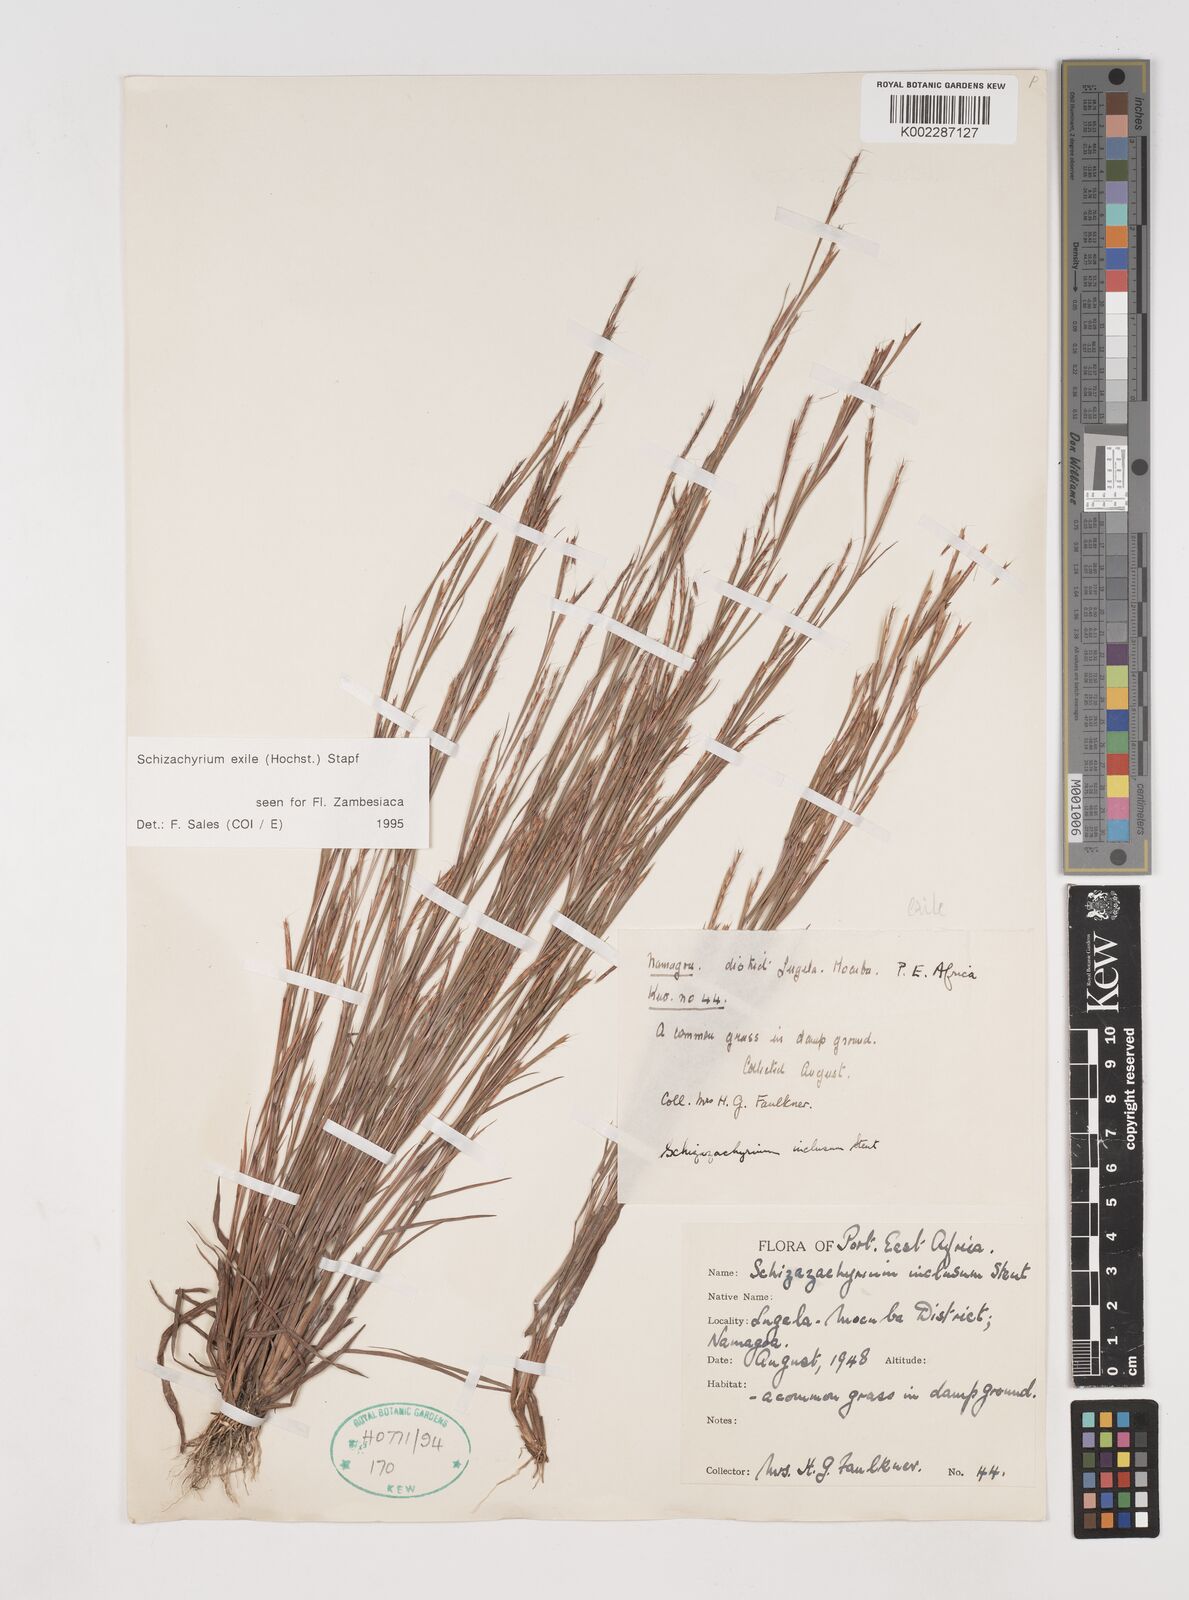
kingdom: Plantae
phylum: Tracheophyta
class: Liliopsida
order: Poales
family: Poaceae
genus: Schizachyrium
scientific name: Schizachyrium exile
